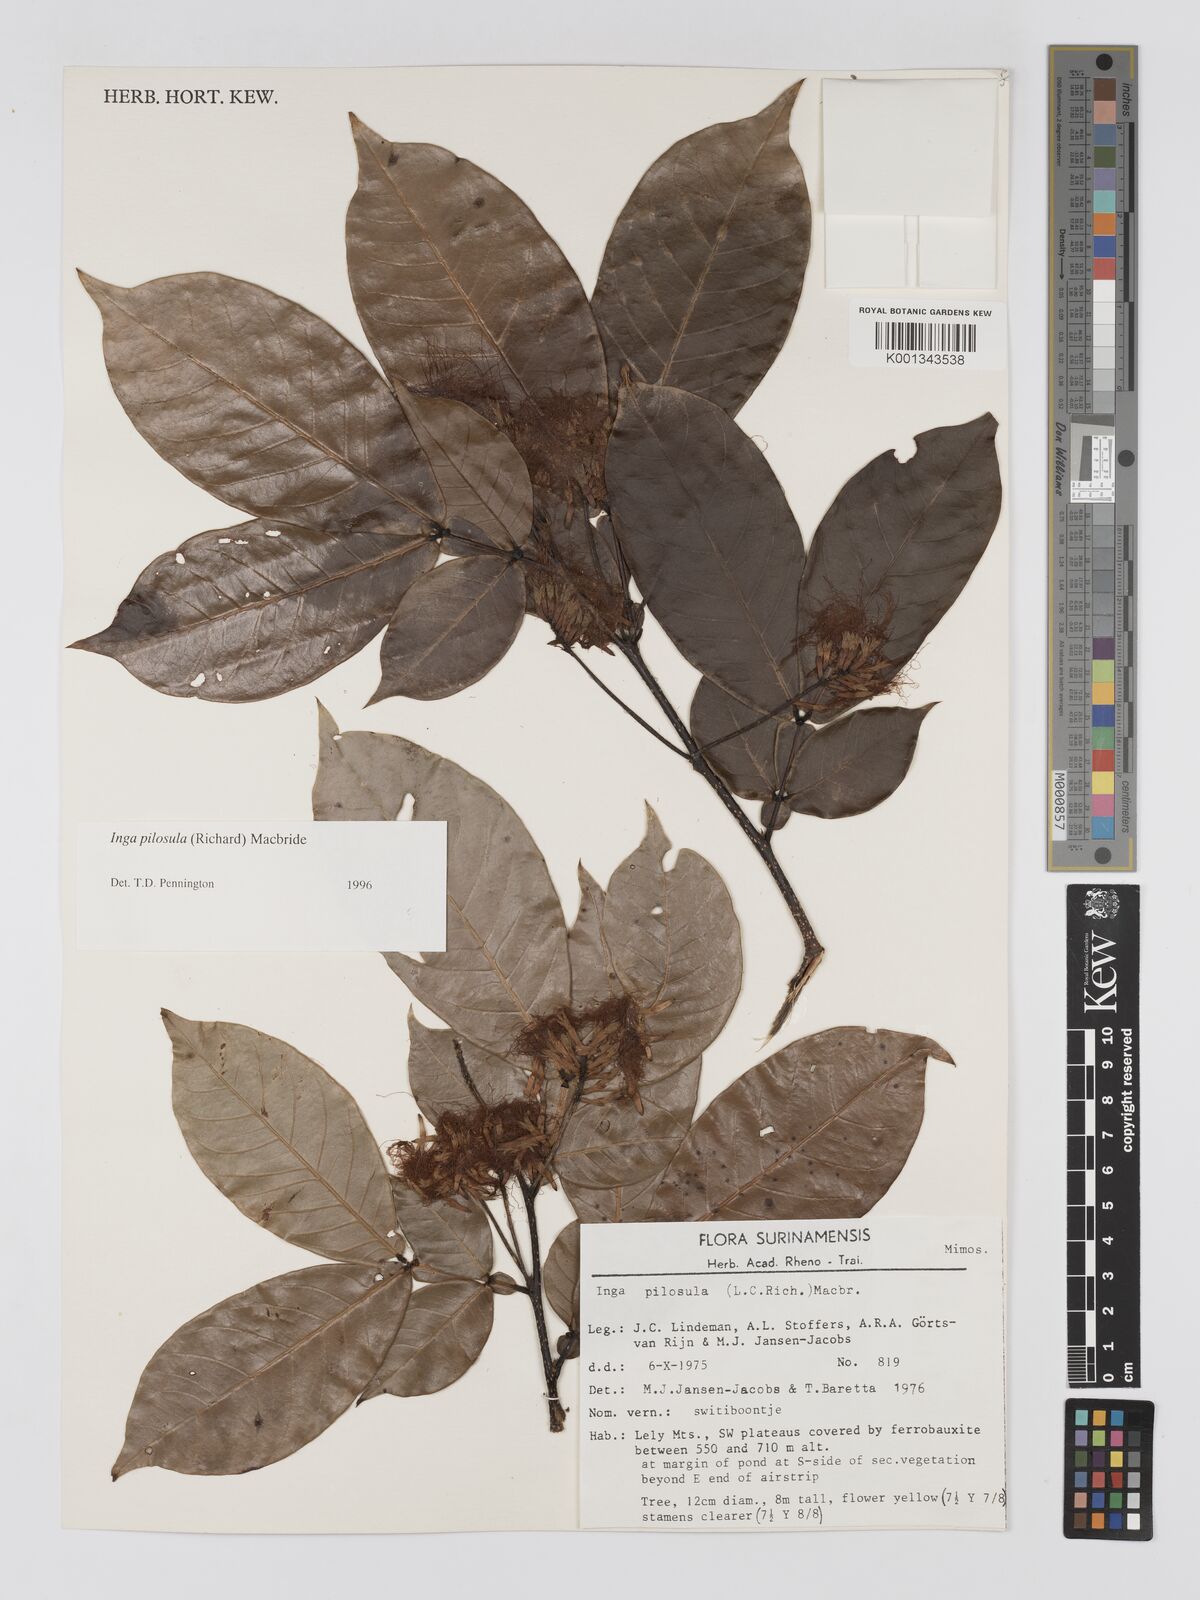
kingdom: Plantae
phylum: Tracheophyta
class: Magnoliopsida
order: Fabales
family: Fabaceae
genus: Inga
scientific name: Inga pilosula
